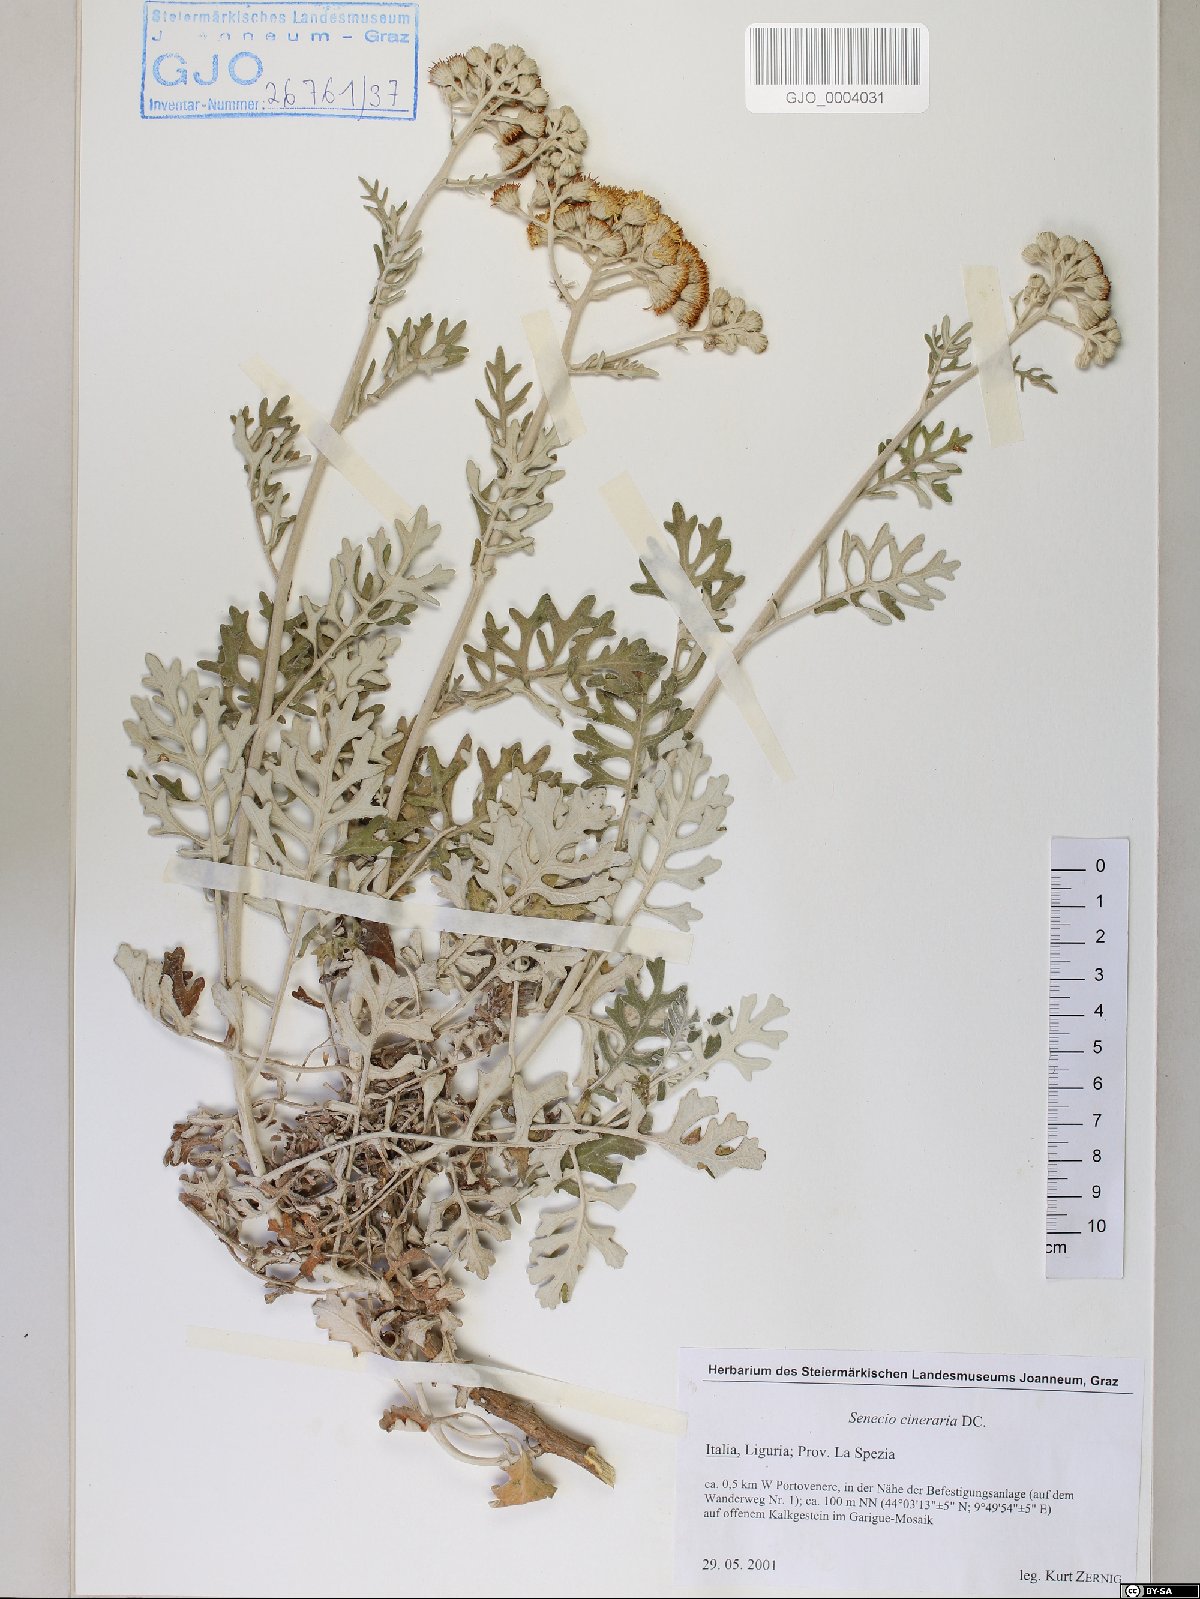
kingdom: Plantae
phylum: Tracheophyta
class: Magnoliopsida
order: Asterales
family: Asteraceae
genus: Jacobaea
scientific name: Jacobaea maritima
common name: Silver ragwort
